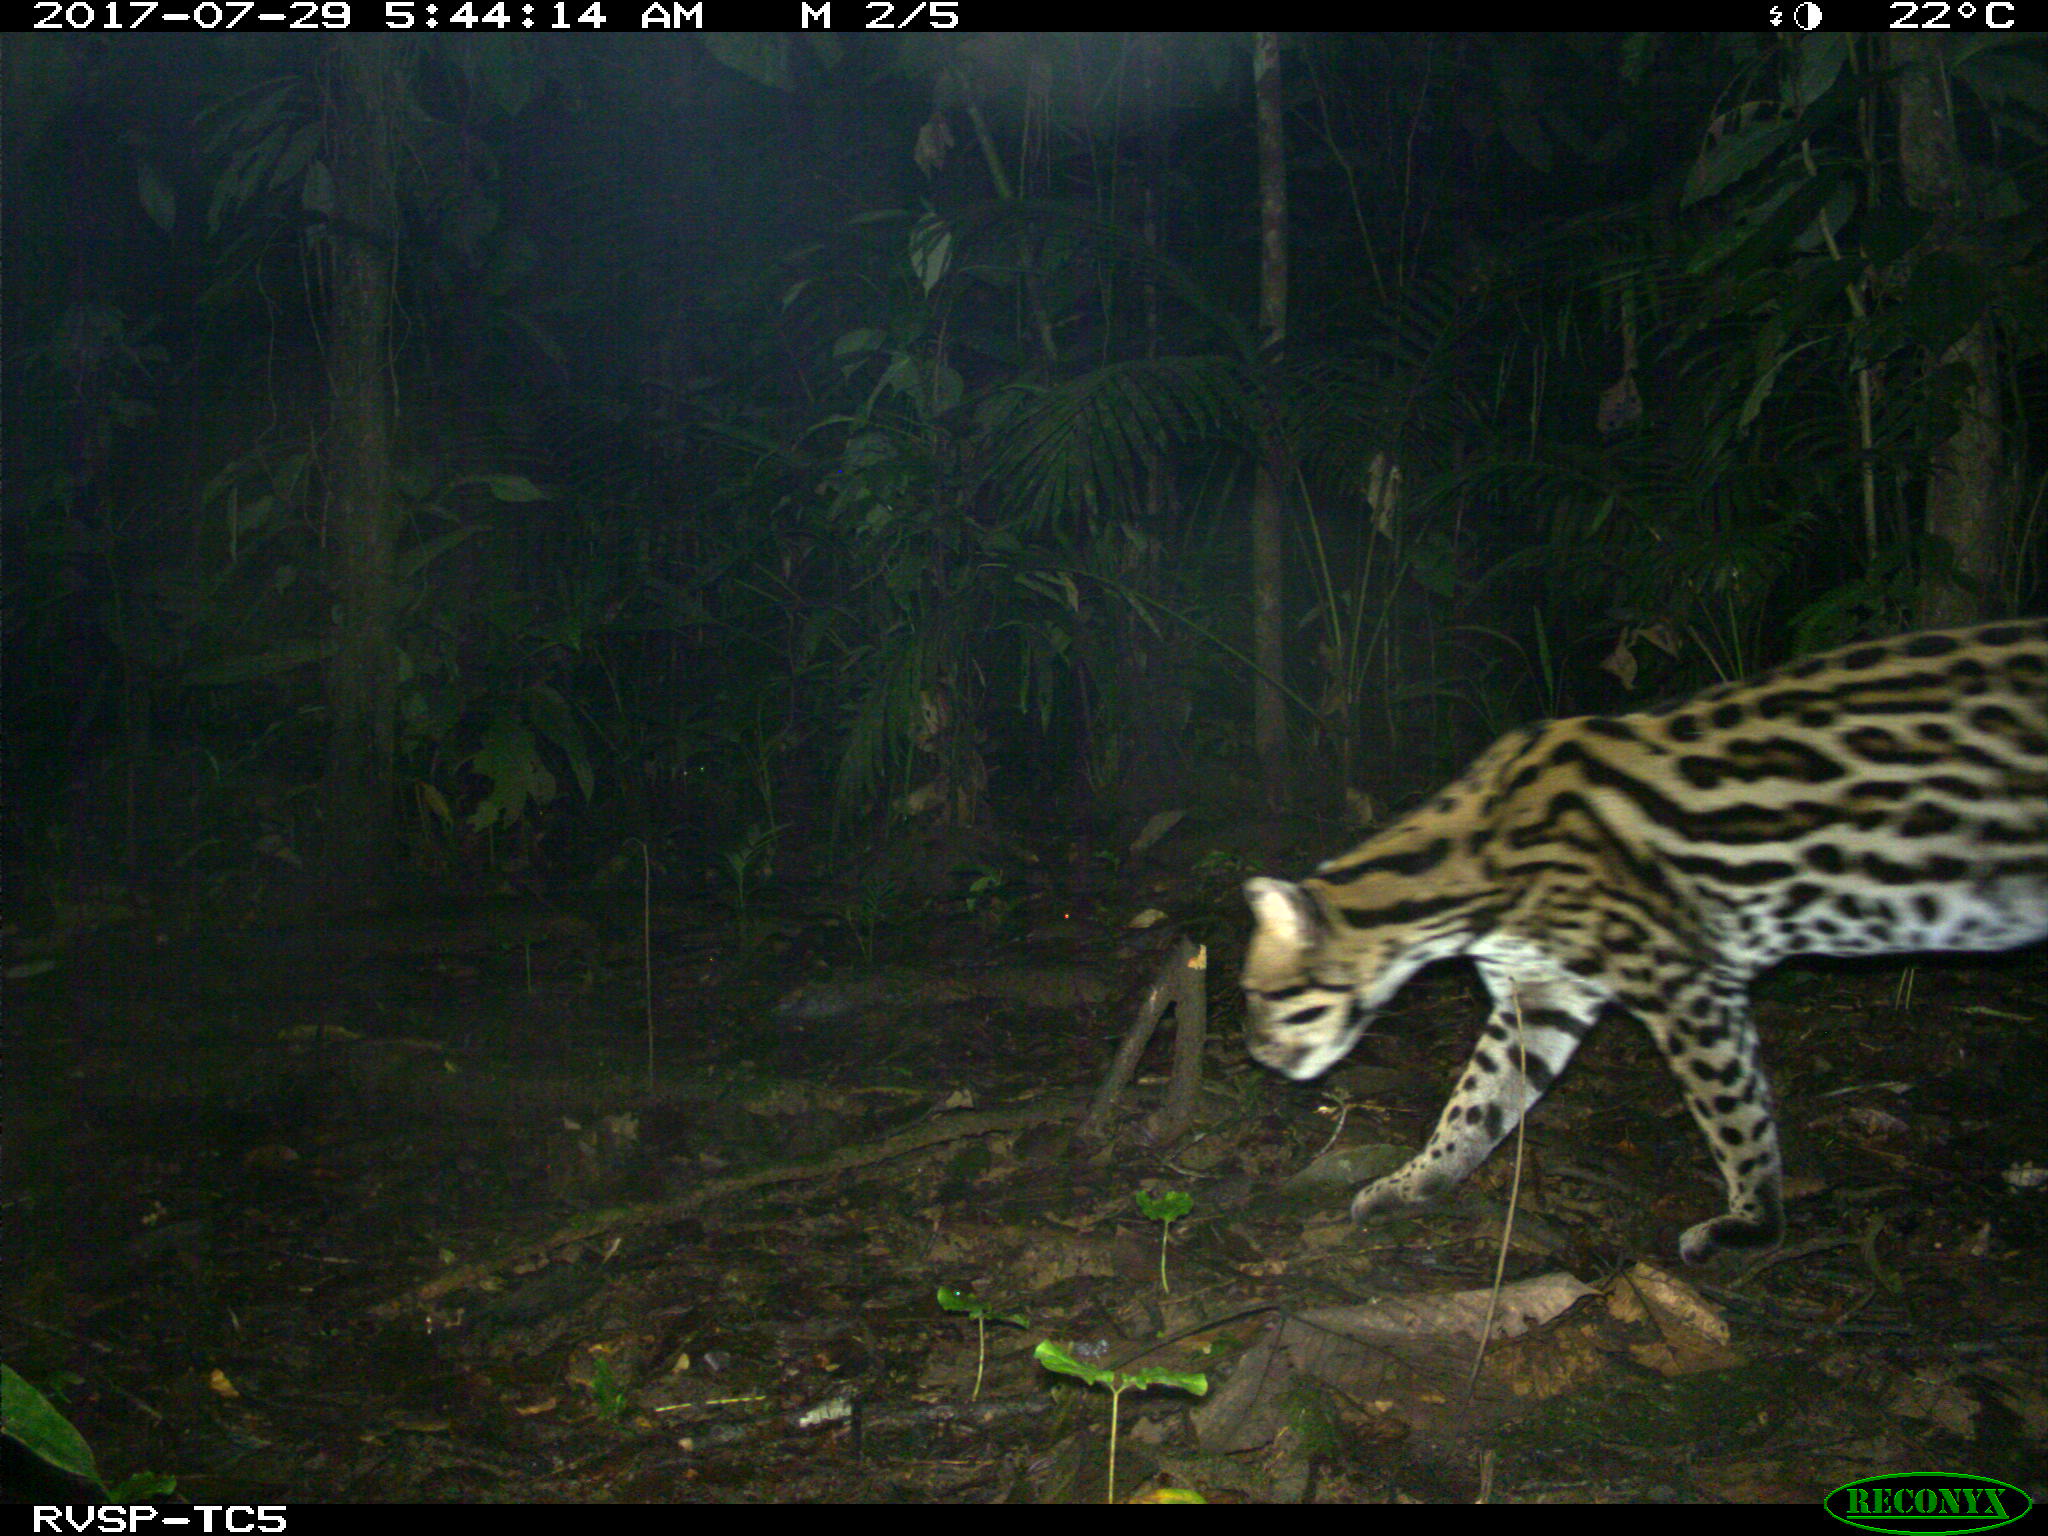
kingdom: Animalia
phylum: Chordata
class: Mammalia
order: Carnivora
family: Felidae
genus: Leopardus
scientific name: Leopardus pardalis
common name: Ocelot
